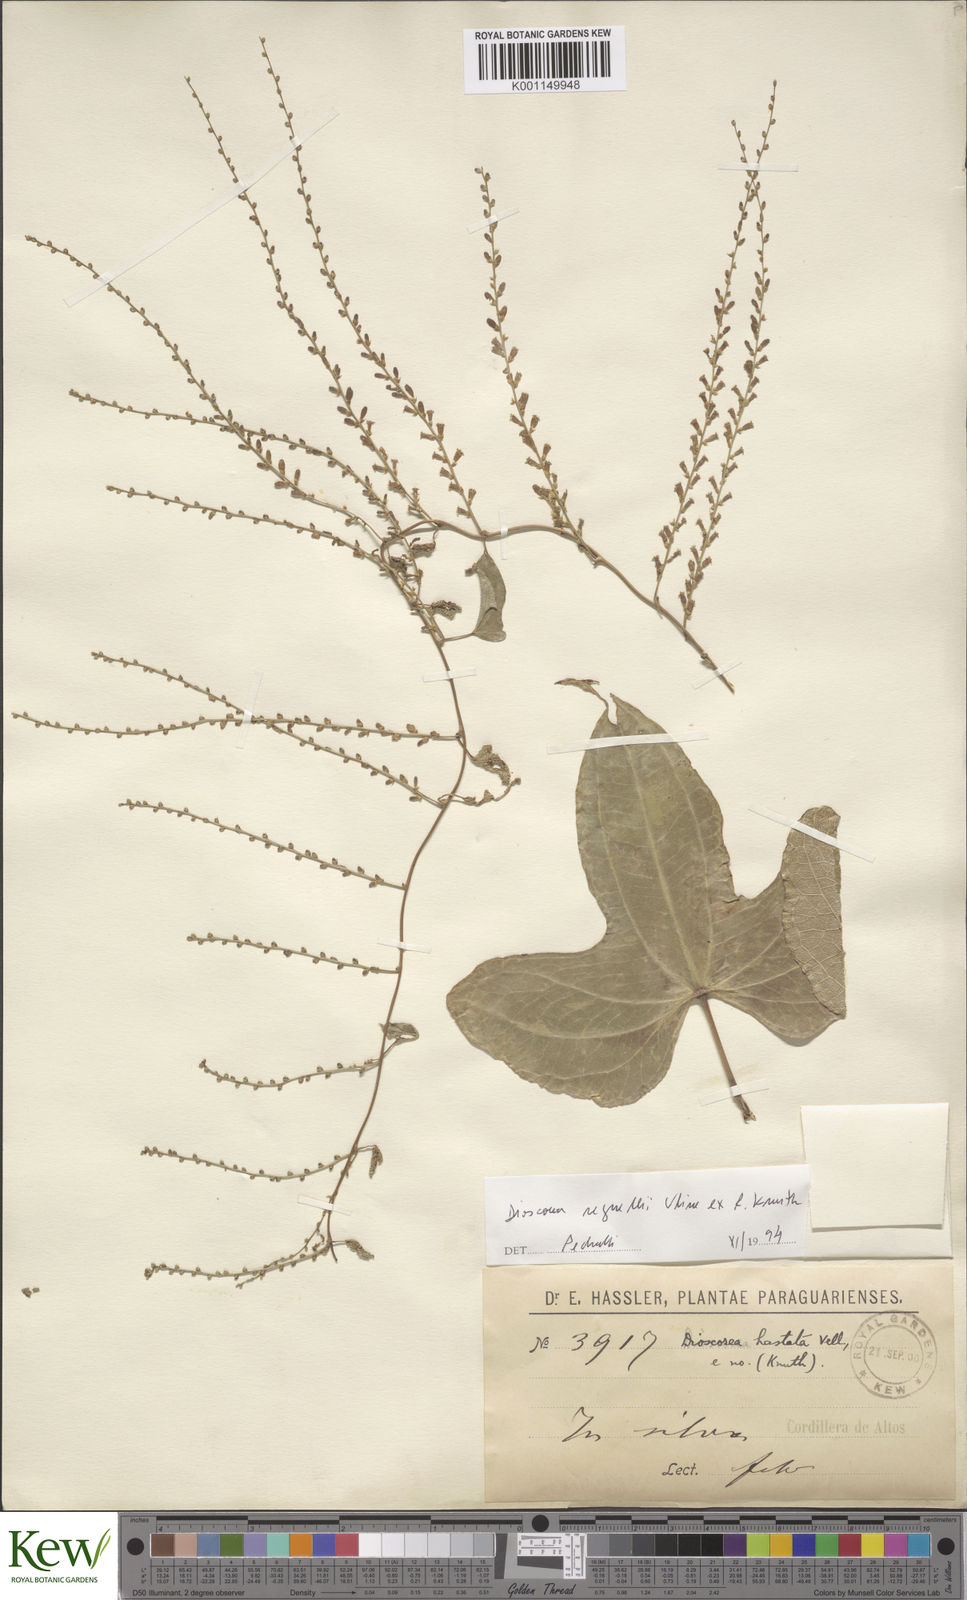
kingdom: Plantae
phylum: Tracheophyta
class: Liliopsida
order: Dioscoreales
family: Dioscoreaceae
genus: Dioscorea
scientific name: Dioscorea hastata
